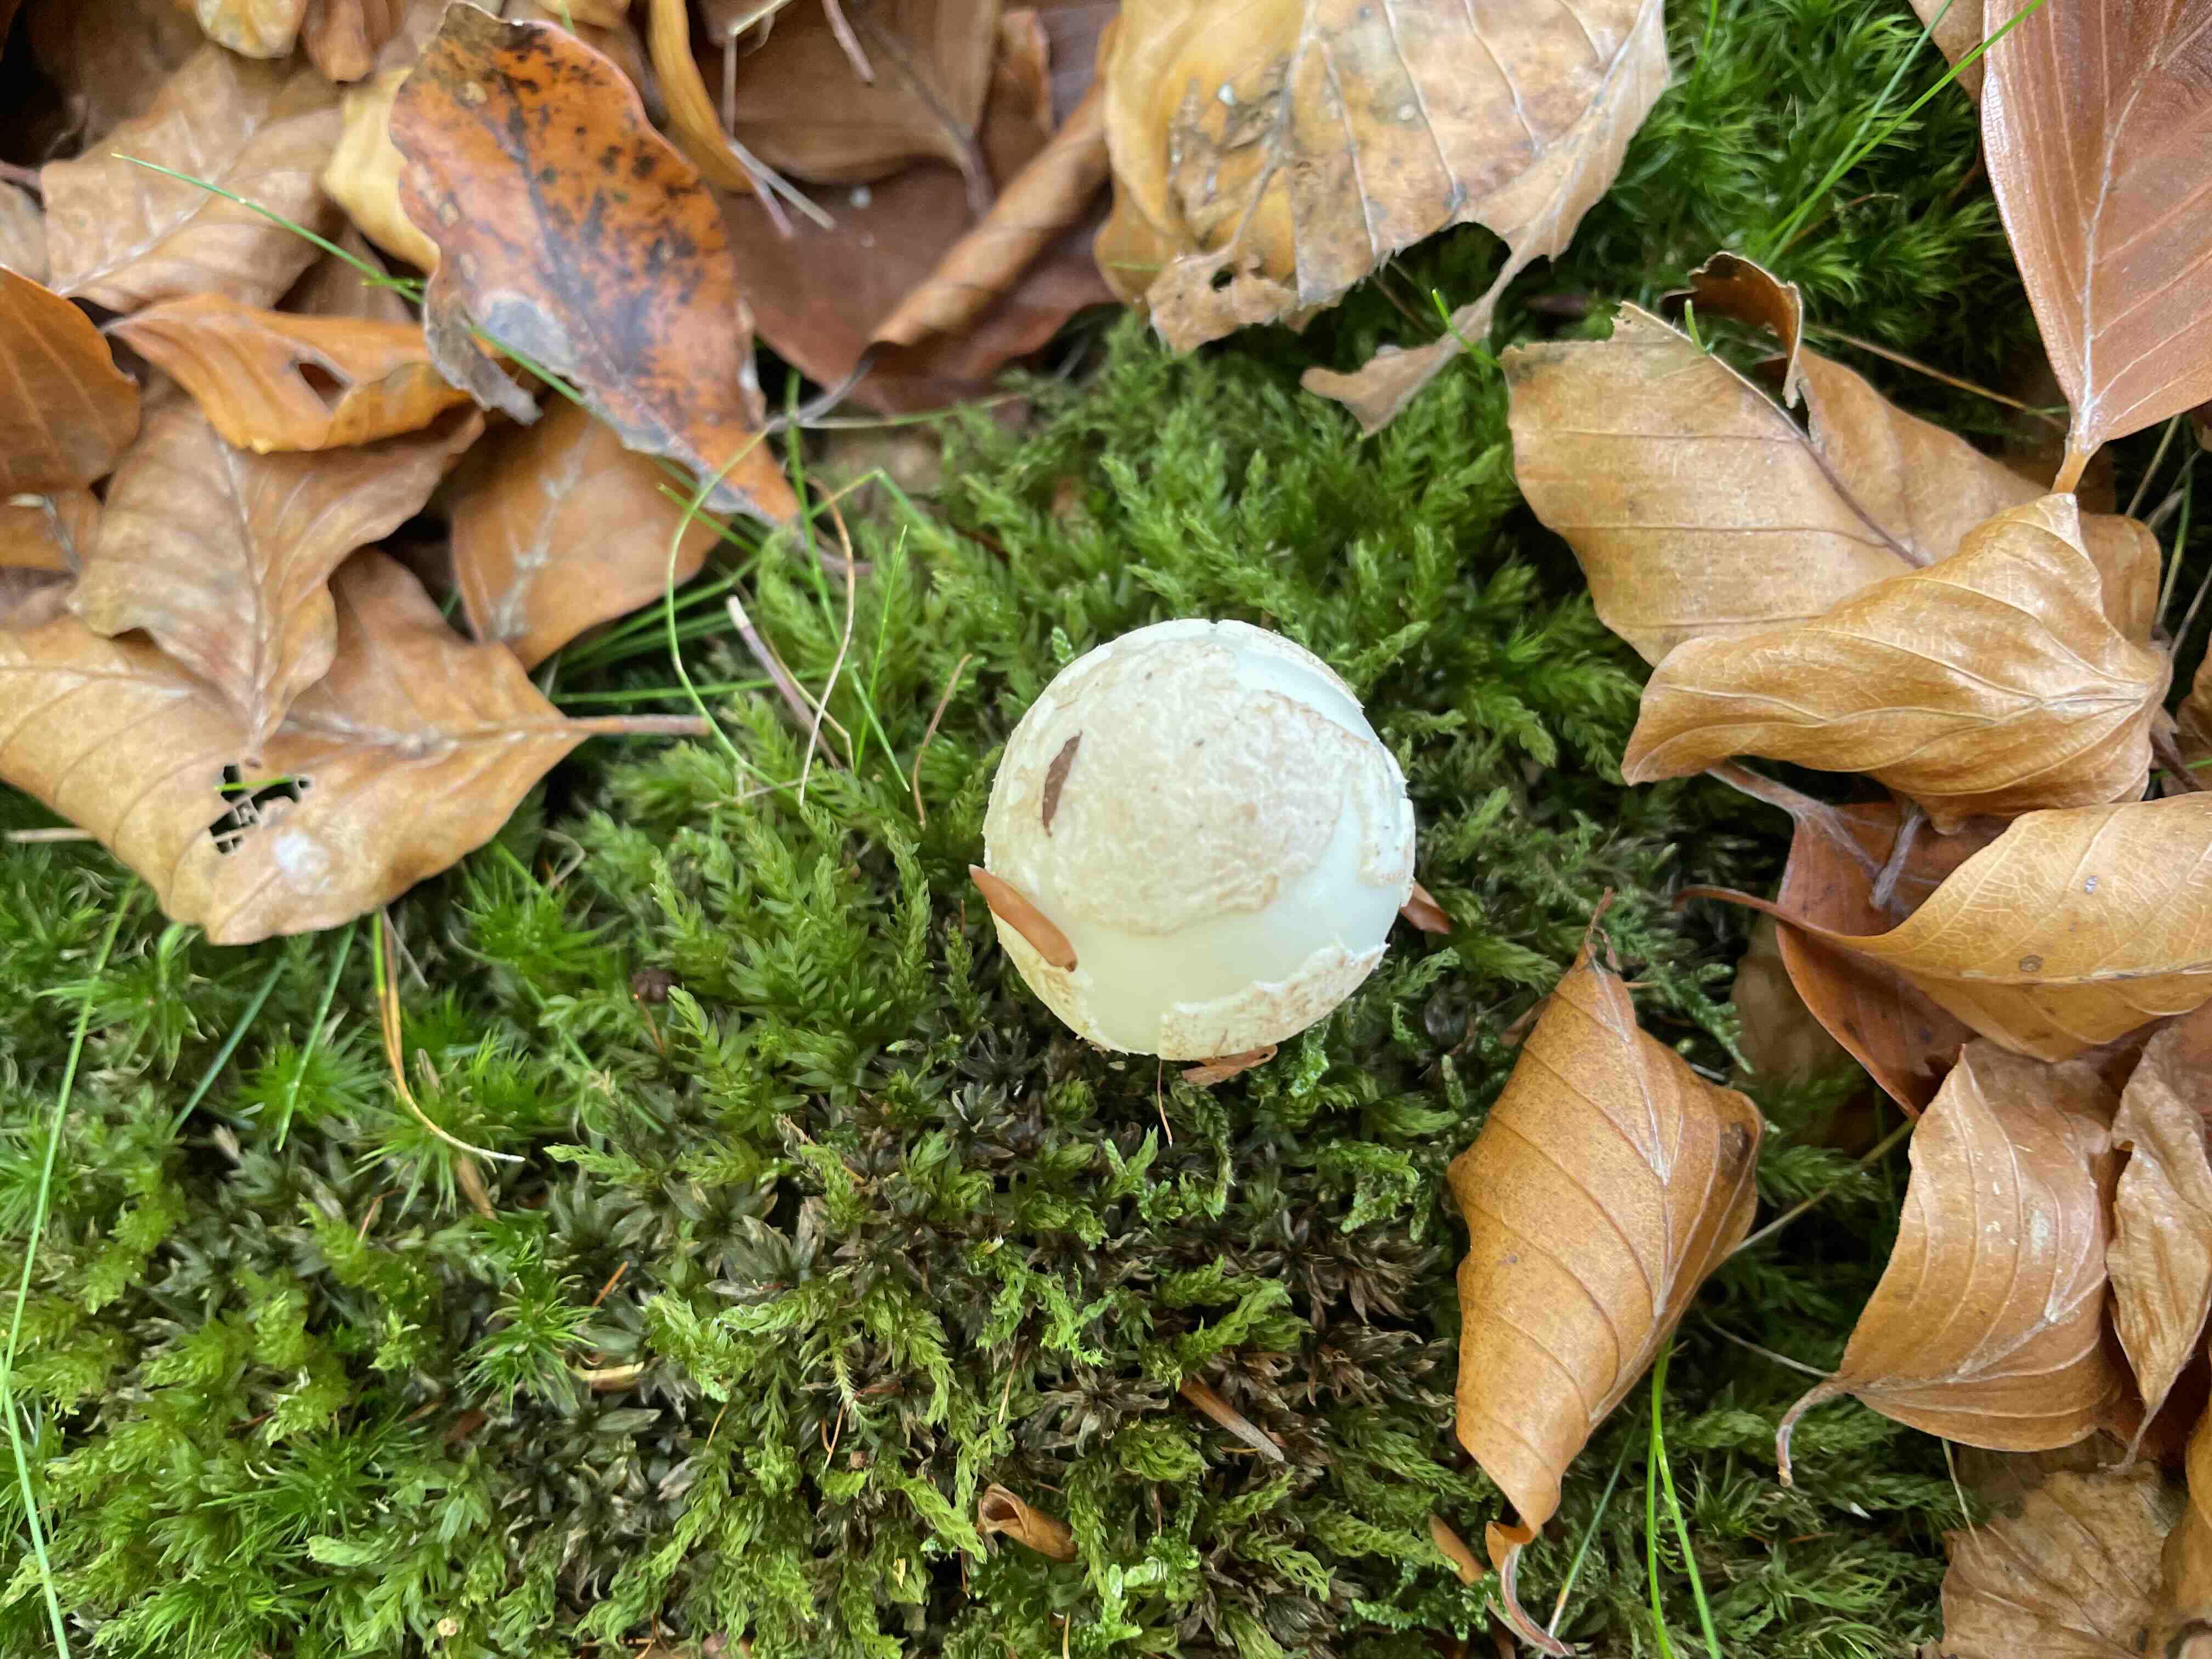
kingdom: Fungi
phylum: Basidiomycota
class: Agaricomycetes
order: Agaricales
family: Amanitaceae
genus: Amanita
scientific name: Amanita citrina
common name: False death-cap
